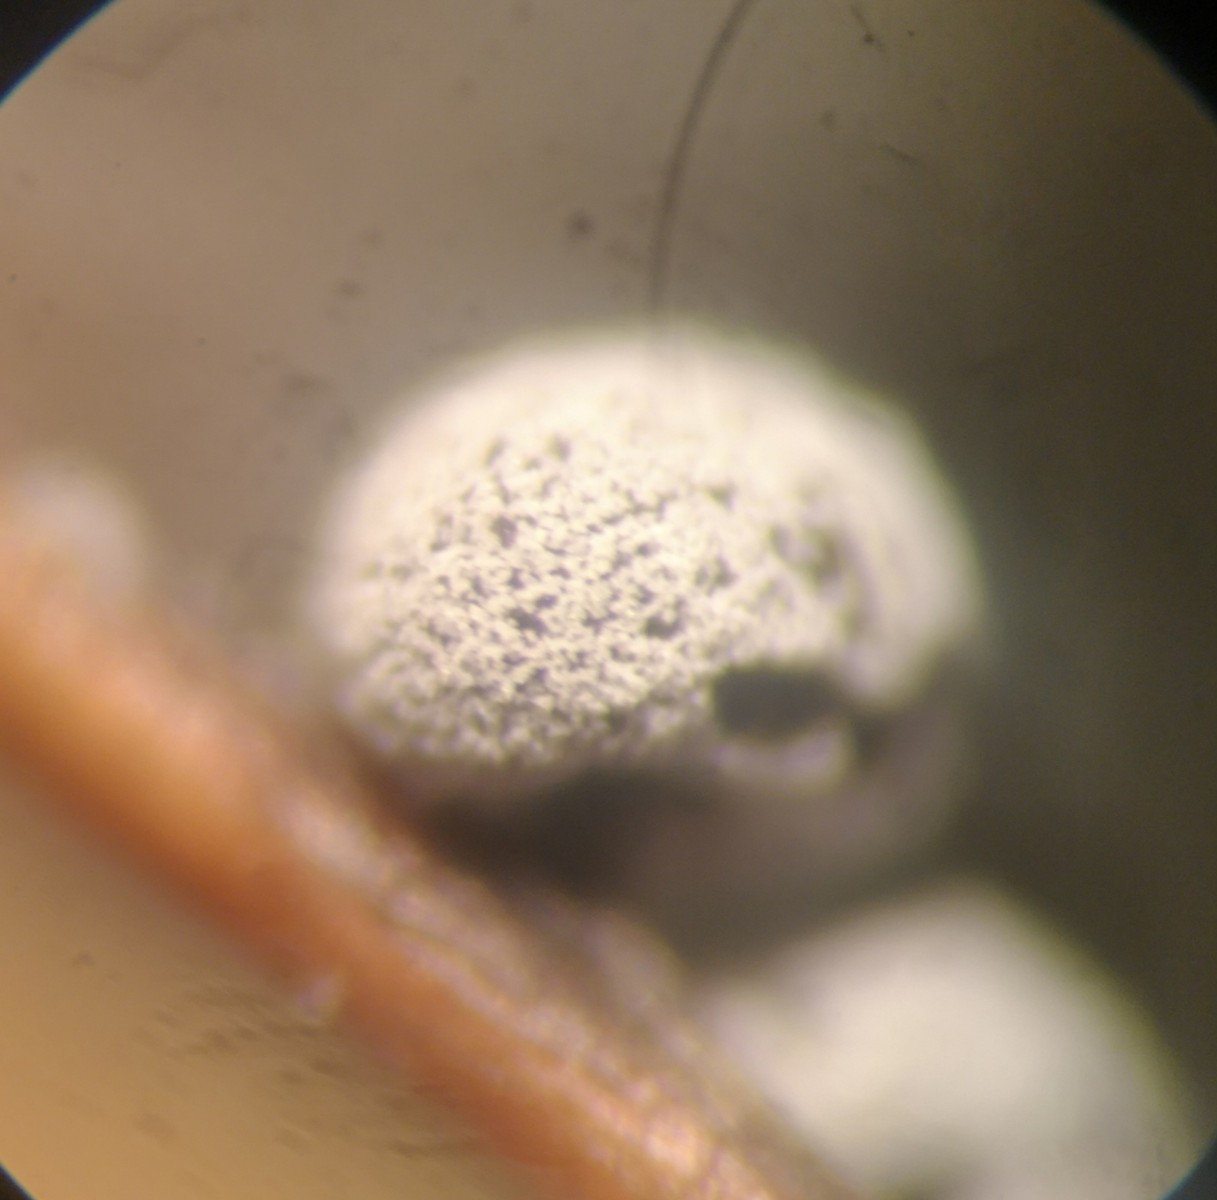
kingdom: Protozoa
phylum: Mycetozoa
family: Didymiidae
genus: Didymium
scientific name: Didymium
